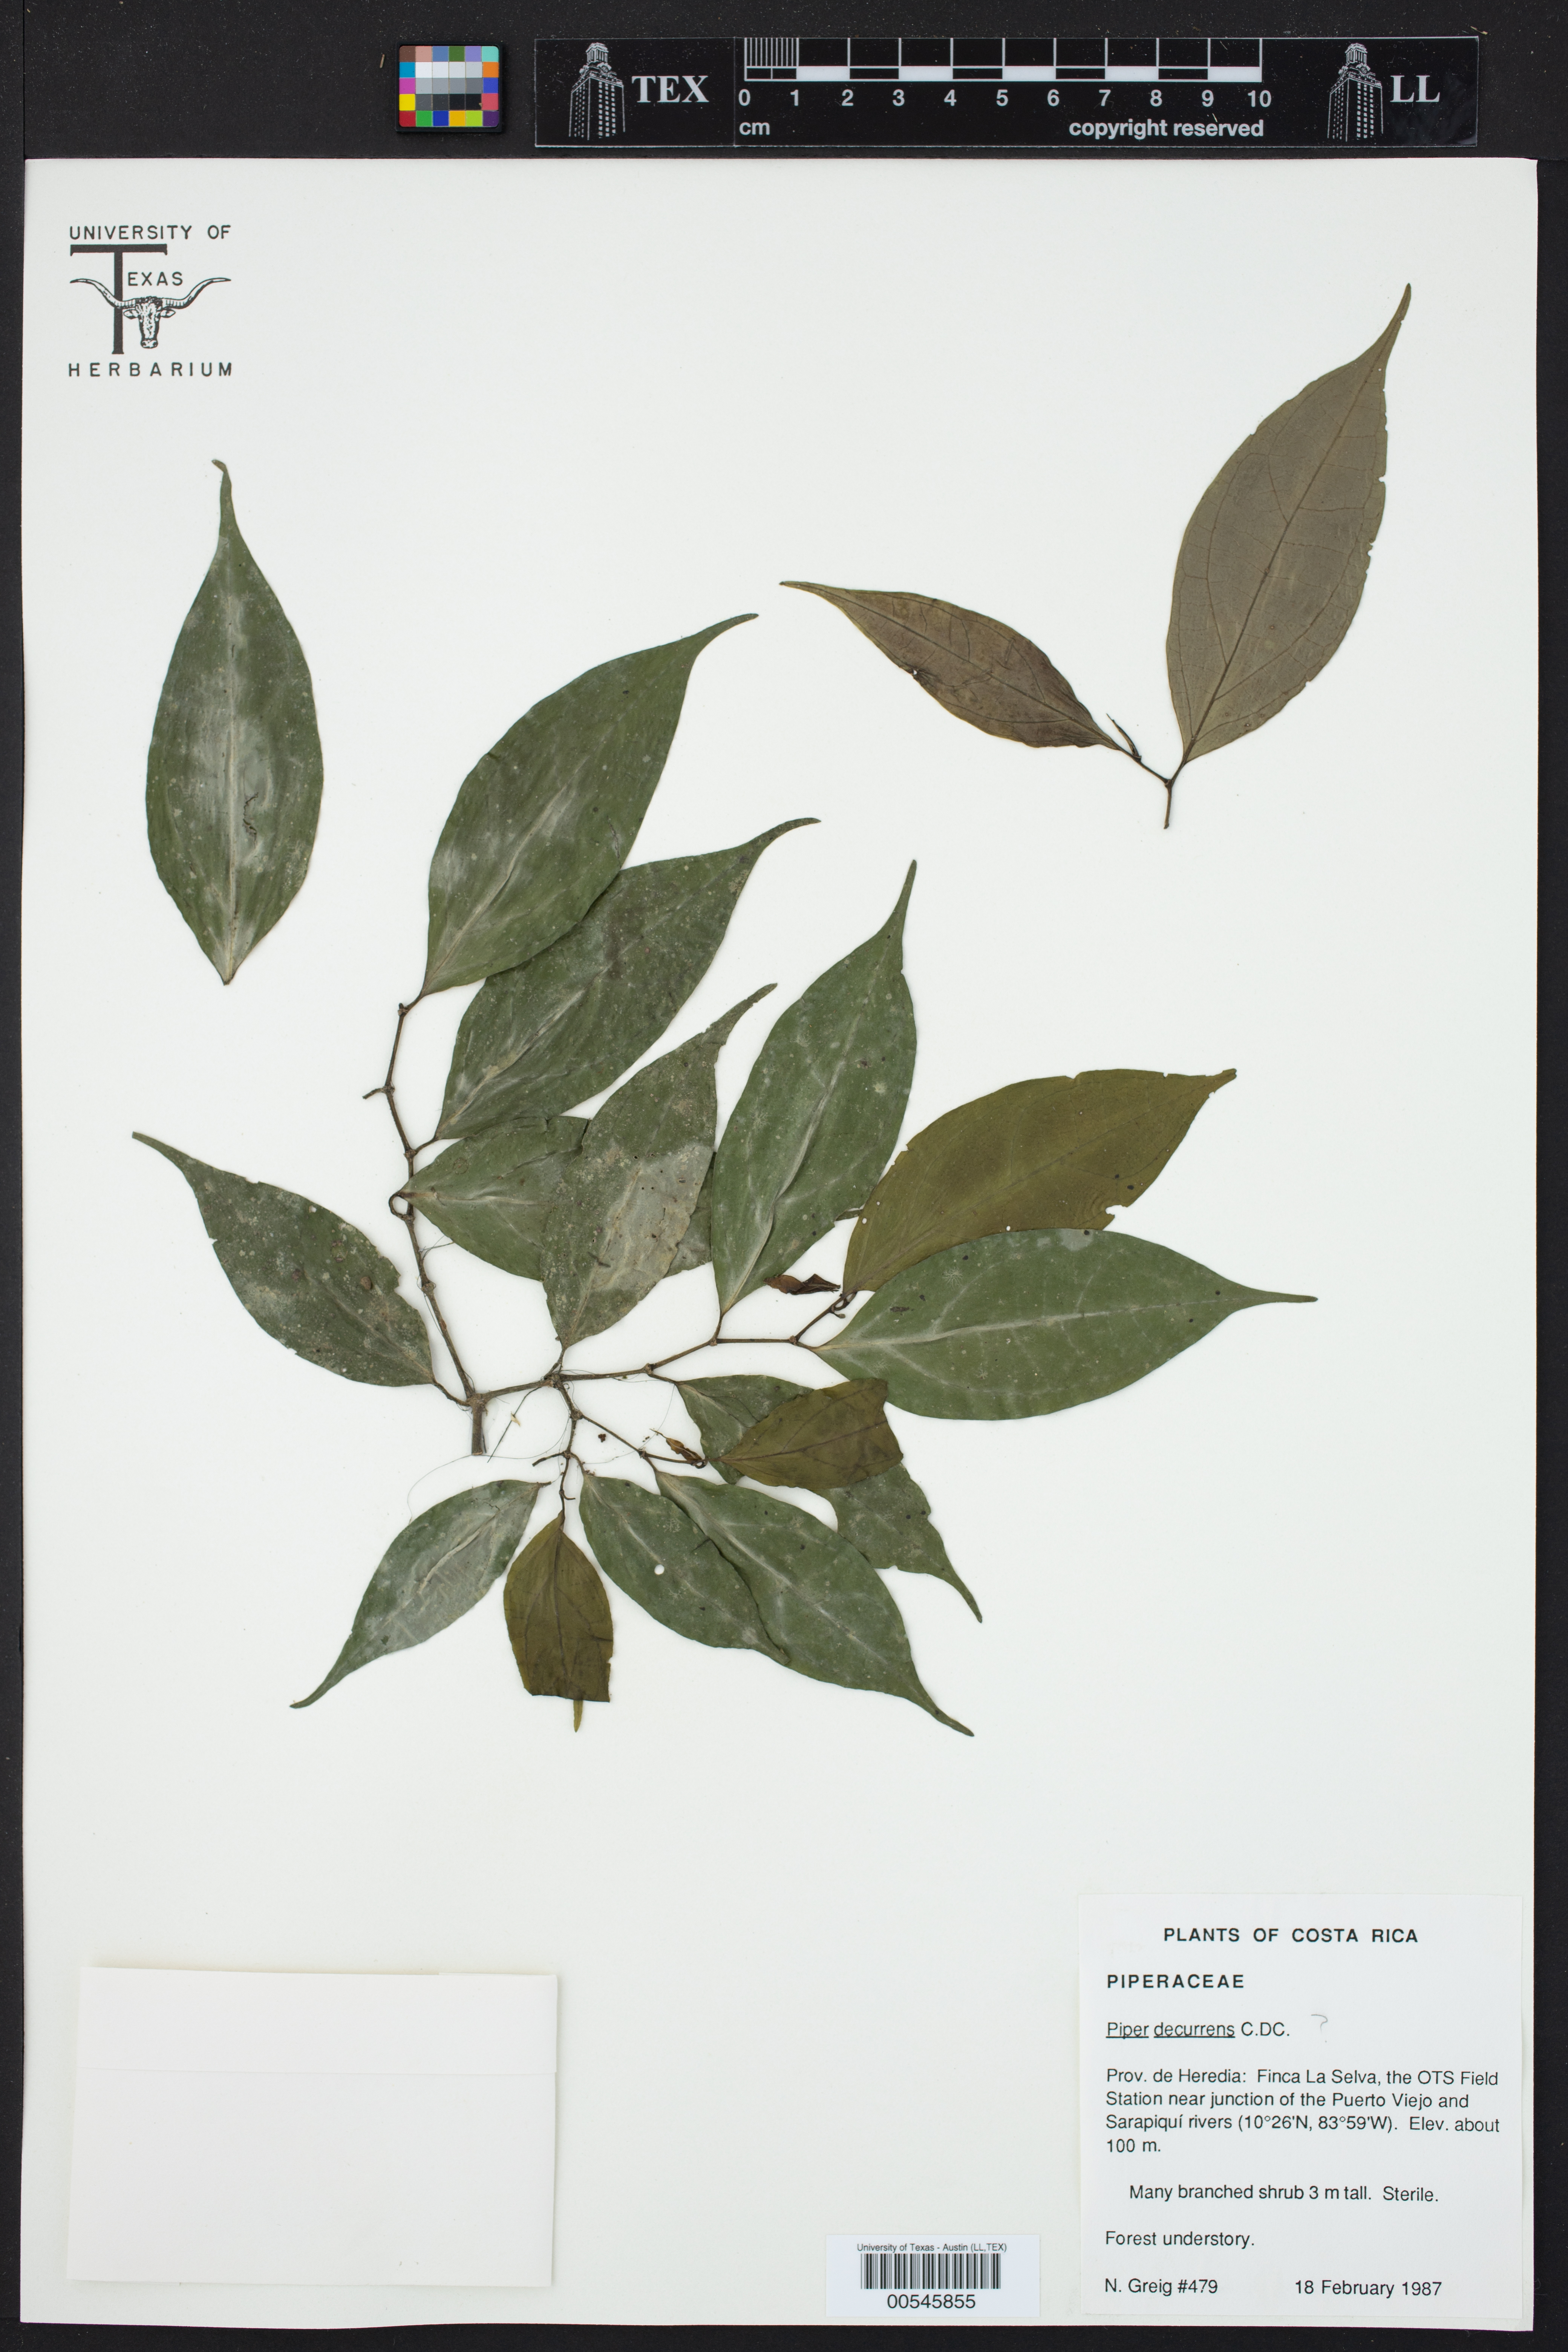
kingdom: Plantae
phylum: Tracheophyta
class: Magnoliopsida
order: Piperales
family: Piperaceae
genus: Piper
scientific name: Piper decurrens
